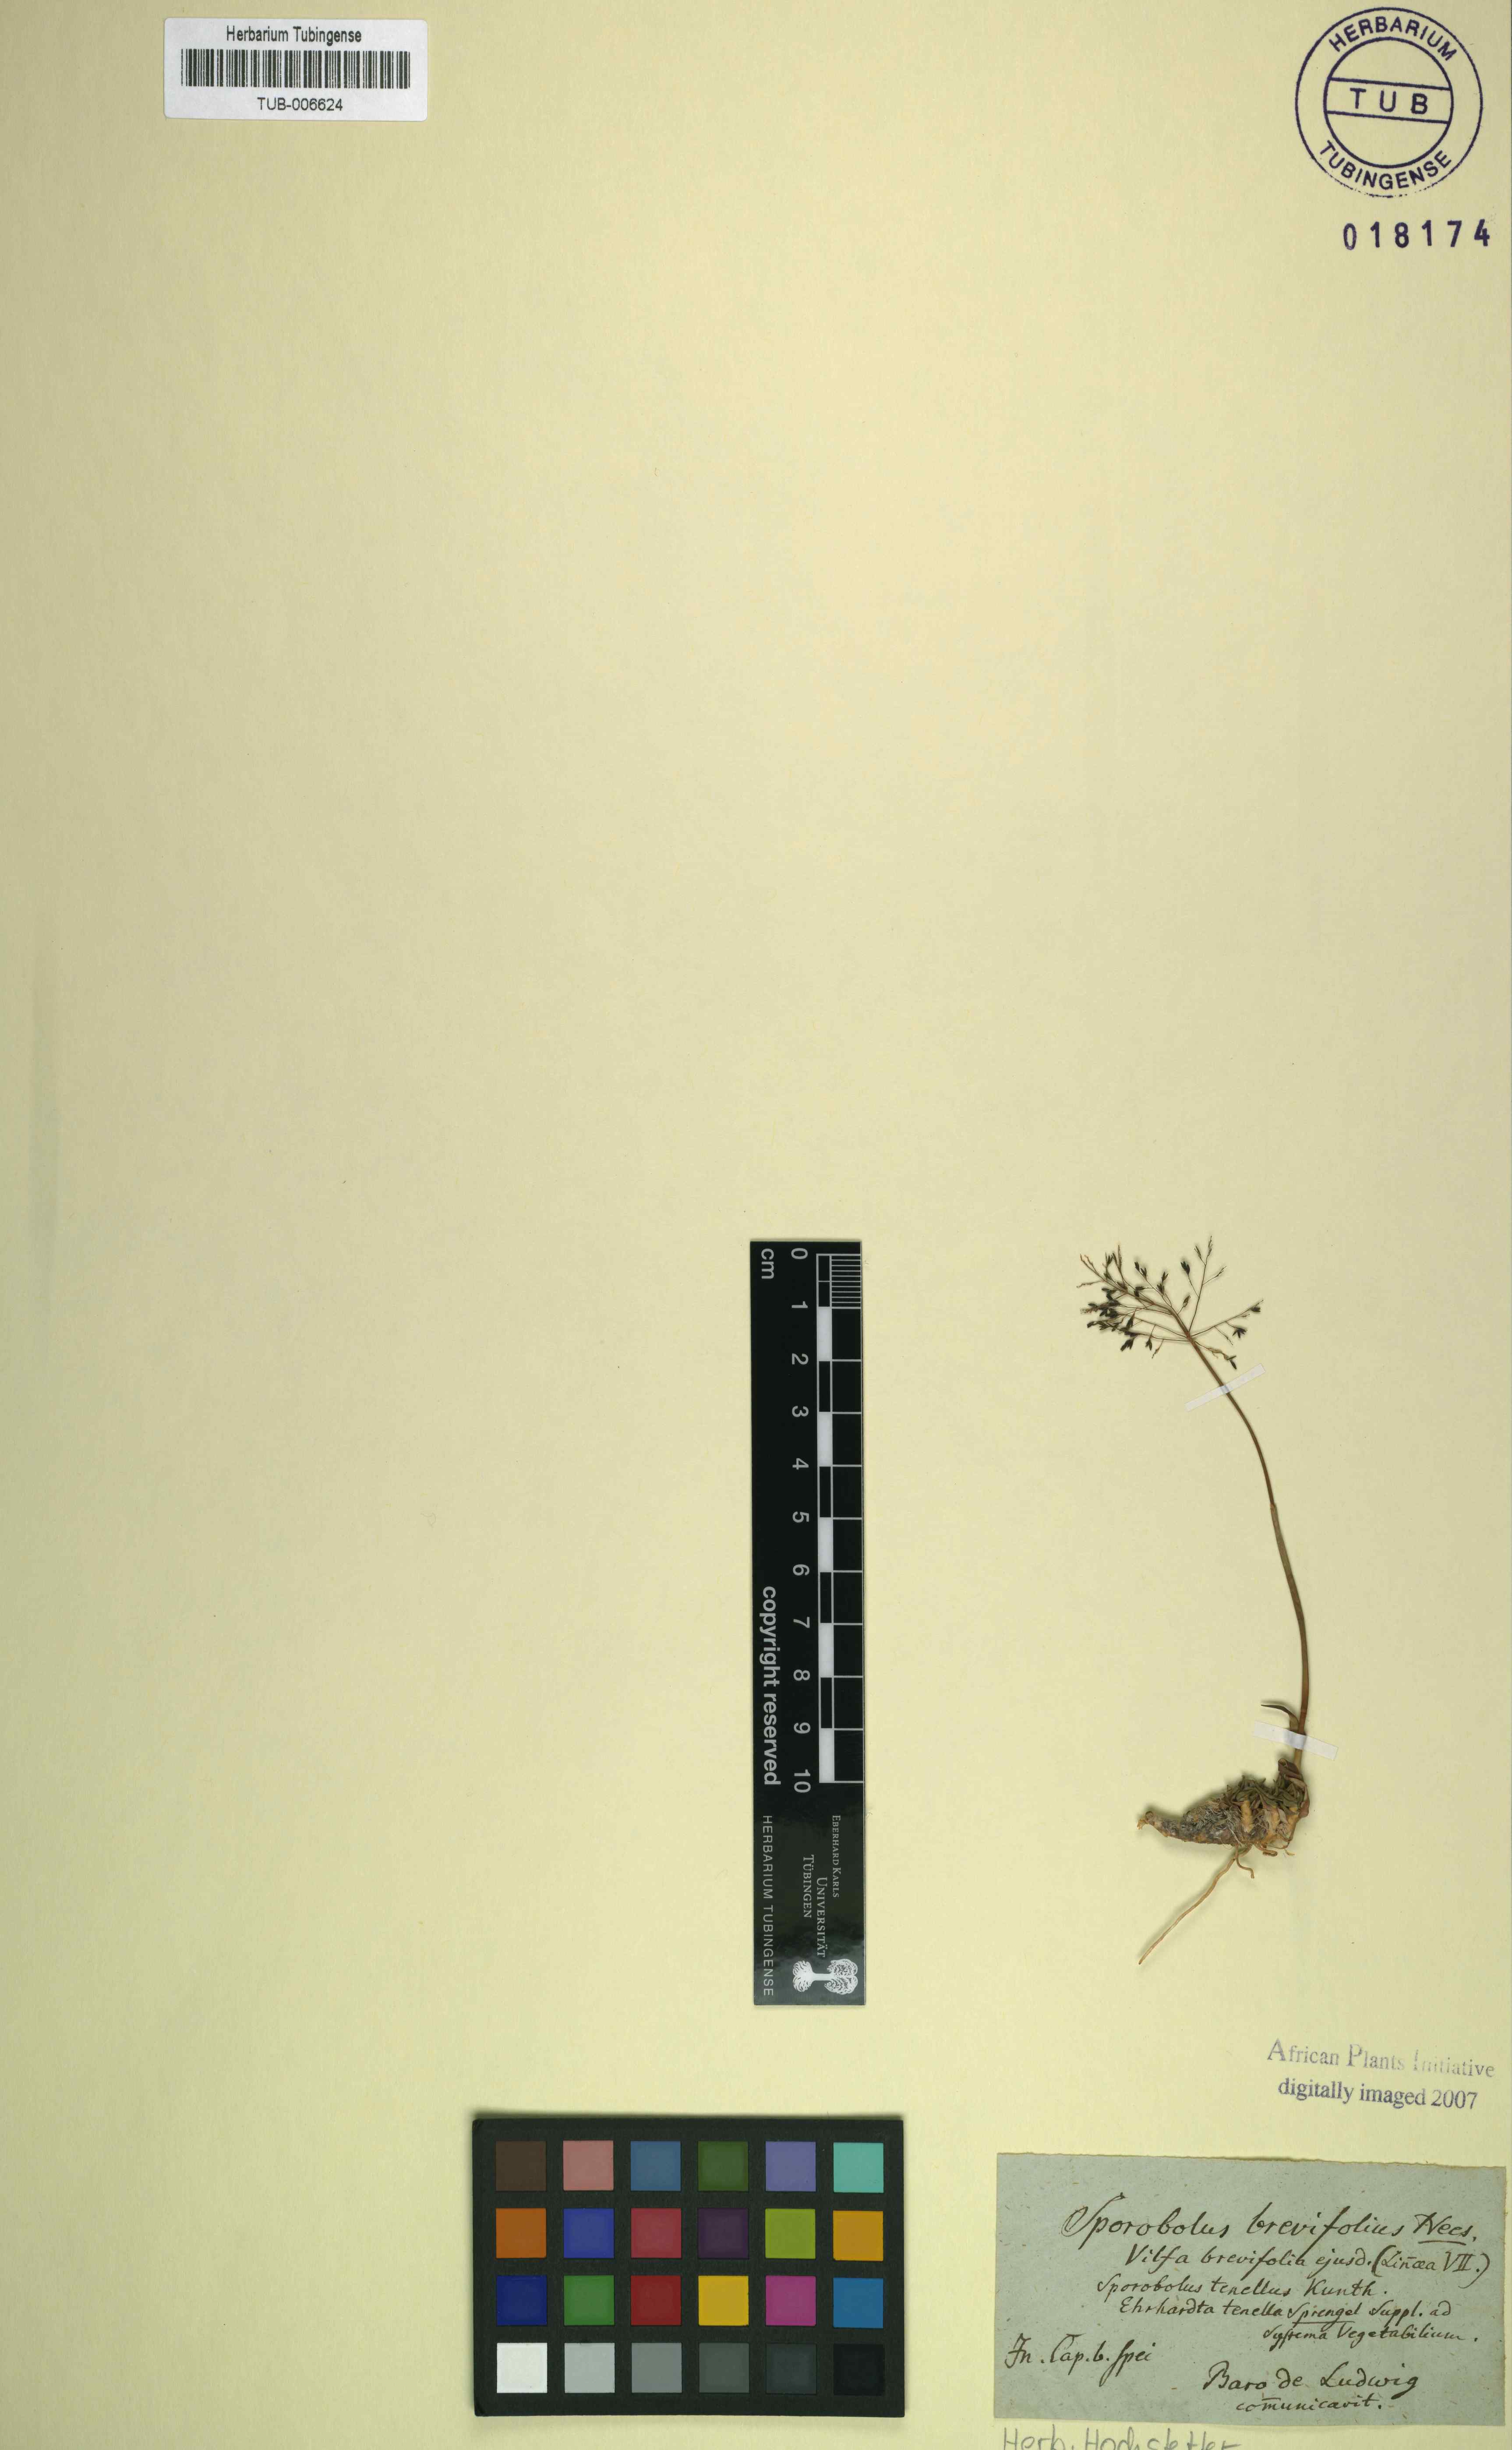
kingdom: Plantae
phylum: Tracheophyta
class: Liliopsida
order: Poales
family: Poaceae
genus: Sporobolus
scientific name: Sporobolus tenellus
